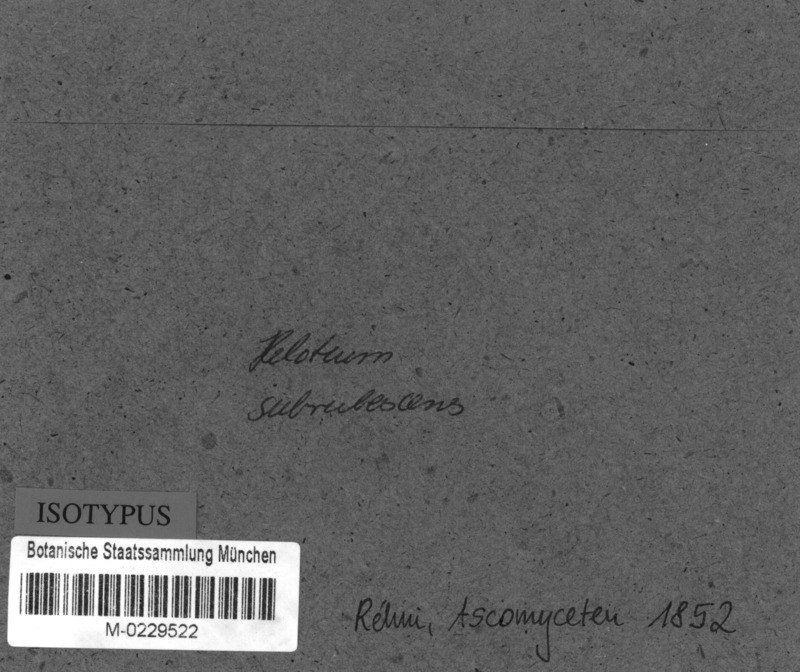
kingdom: Fungi
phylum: Ascomycota
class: Leotiomycetes
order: Helotiales
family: Tricladiaceae
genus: Helotium
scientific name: Helotium
